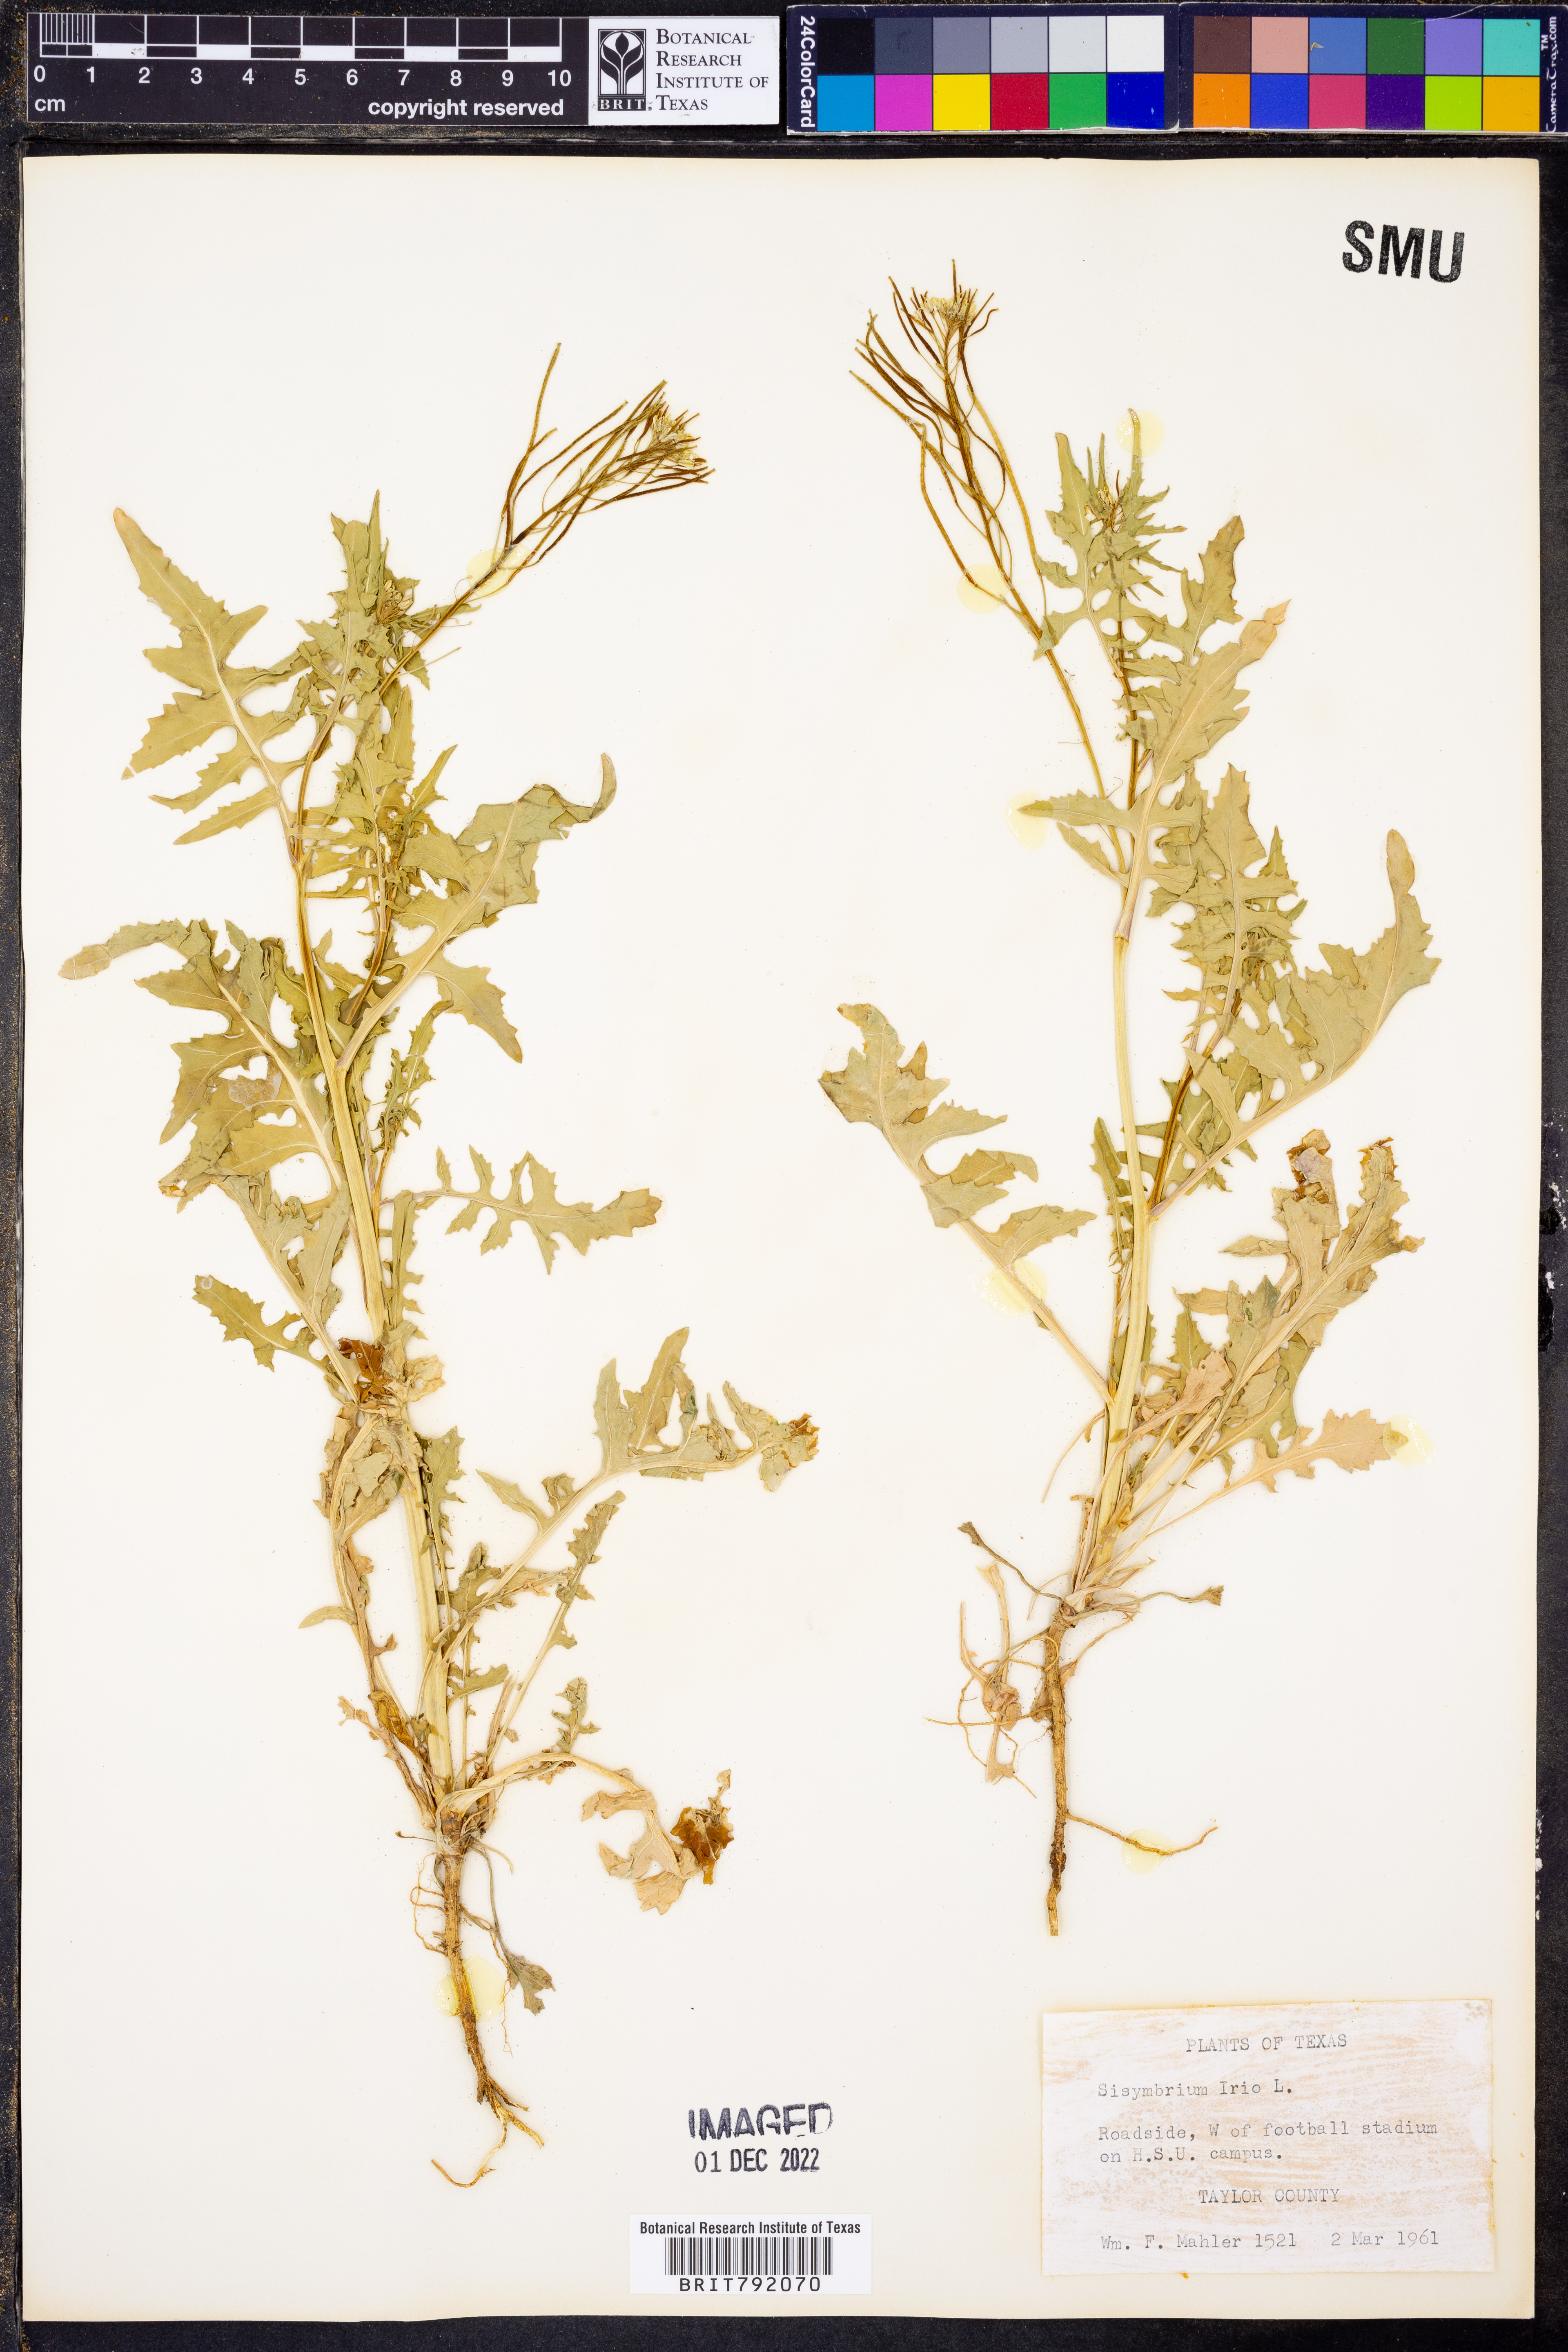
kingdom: Plantae
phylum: Tracheophyta
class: Magnoliopsida
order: Brassicales
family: Brassicaceae
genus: Sisymbrium
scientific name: Sisymbrium irio
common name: London rocket
